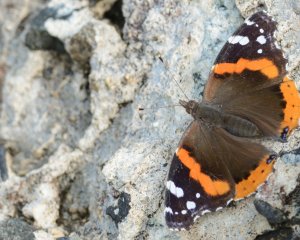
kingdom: Animalia
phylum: Arthropoda
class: Insecta
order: Lepidoptera
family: Nymphalidae
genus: Vanessa
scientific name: Vanessa atalanta
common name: Red Admiral
